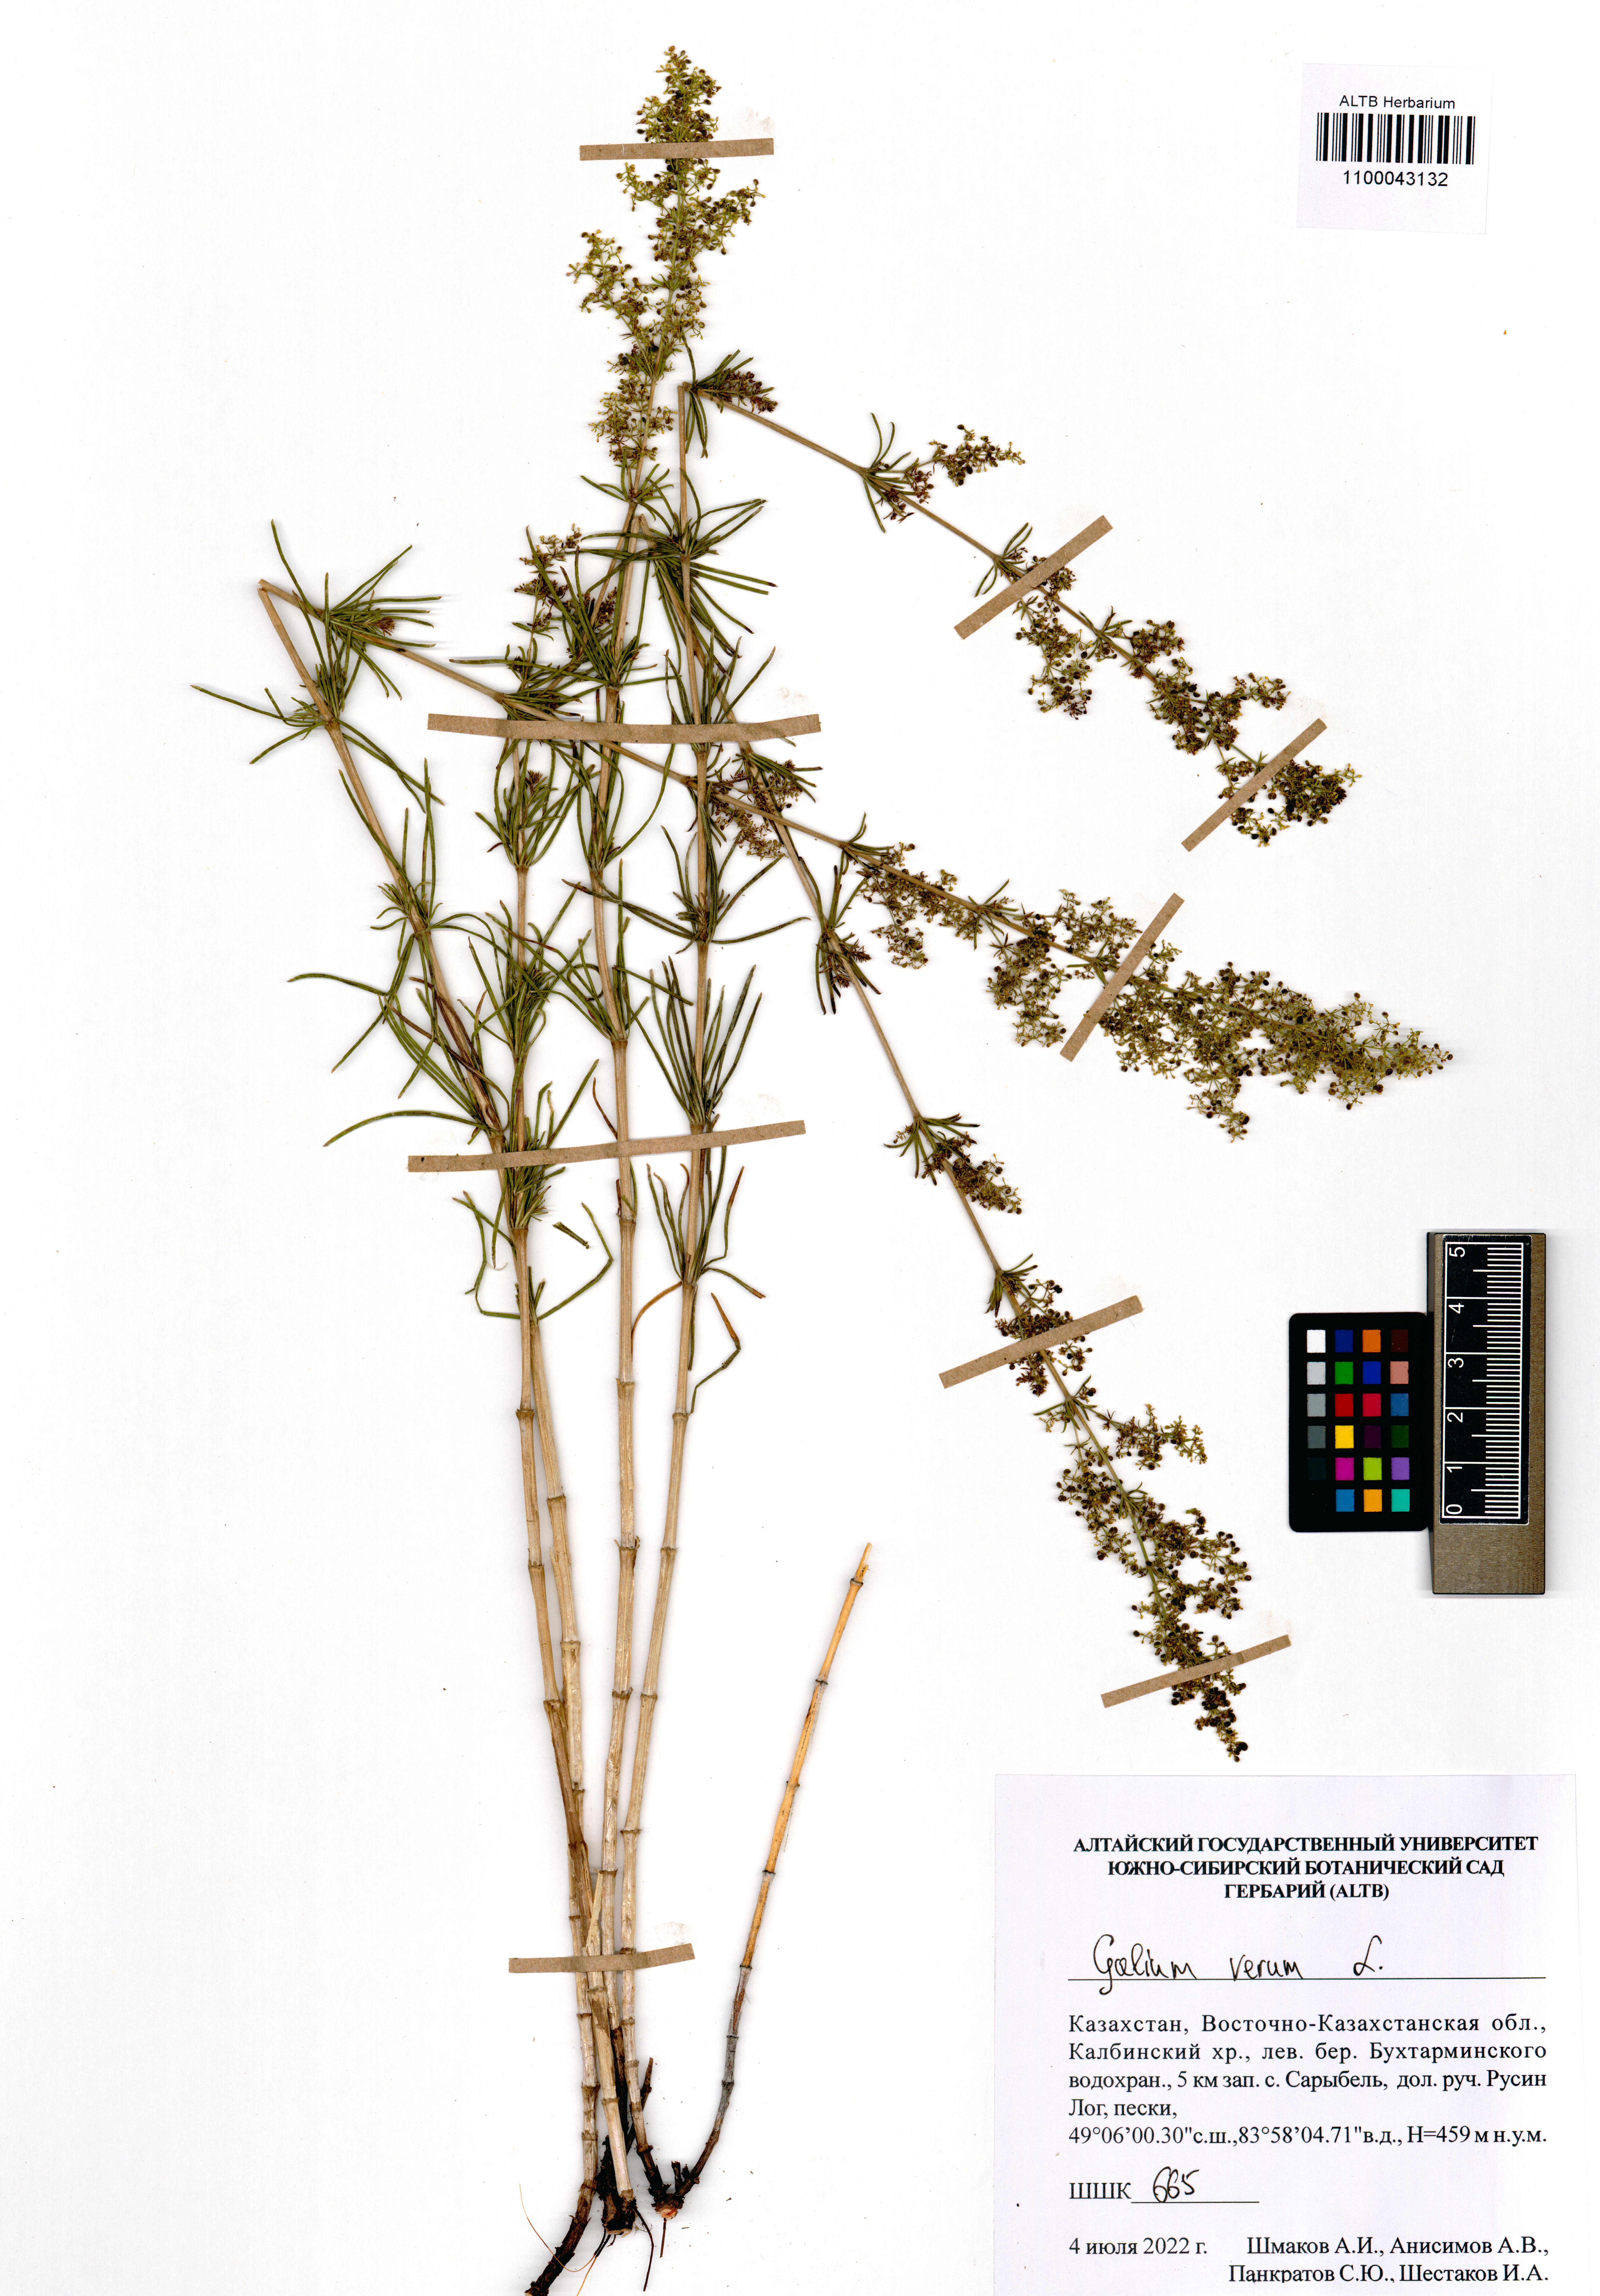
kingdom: Plantae
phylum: Tracheophyta
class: Magnoliopsida
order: Gentianales
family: Rubiaceae
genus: Galium
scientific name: Galium verum
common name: Lady's bedstraw
